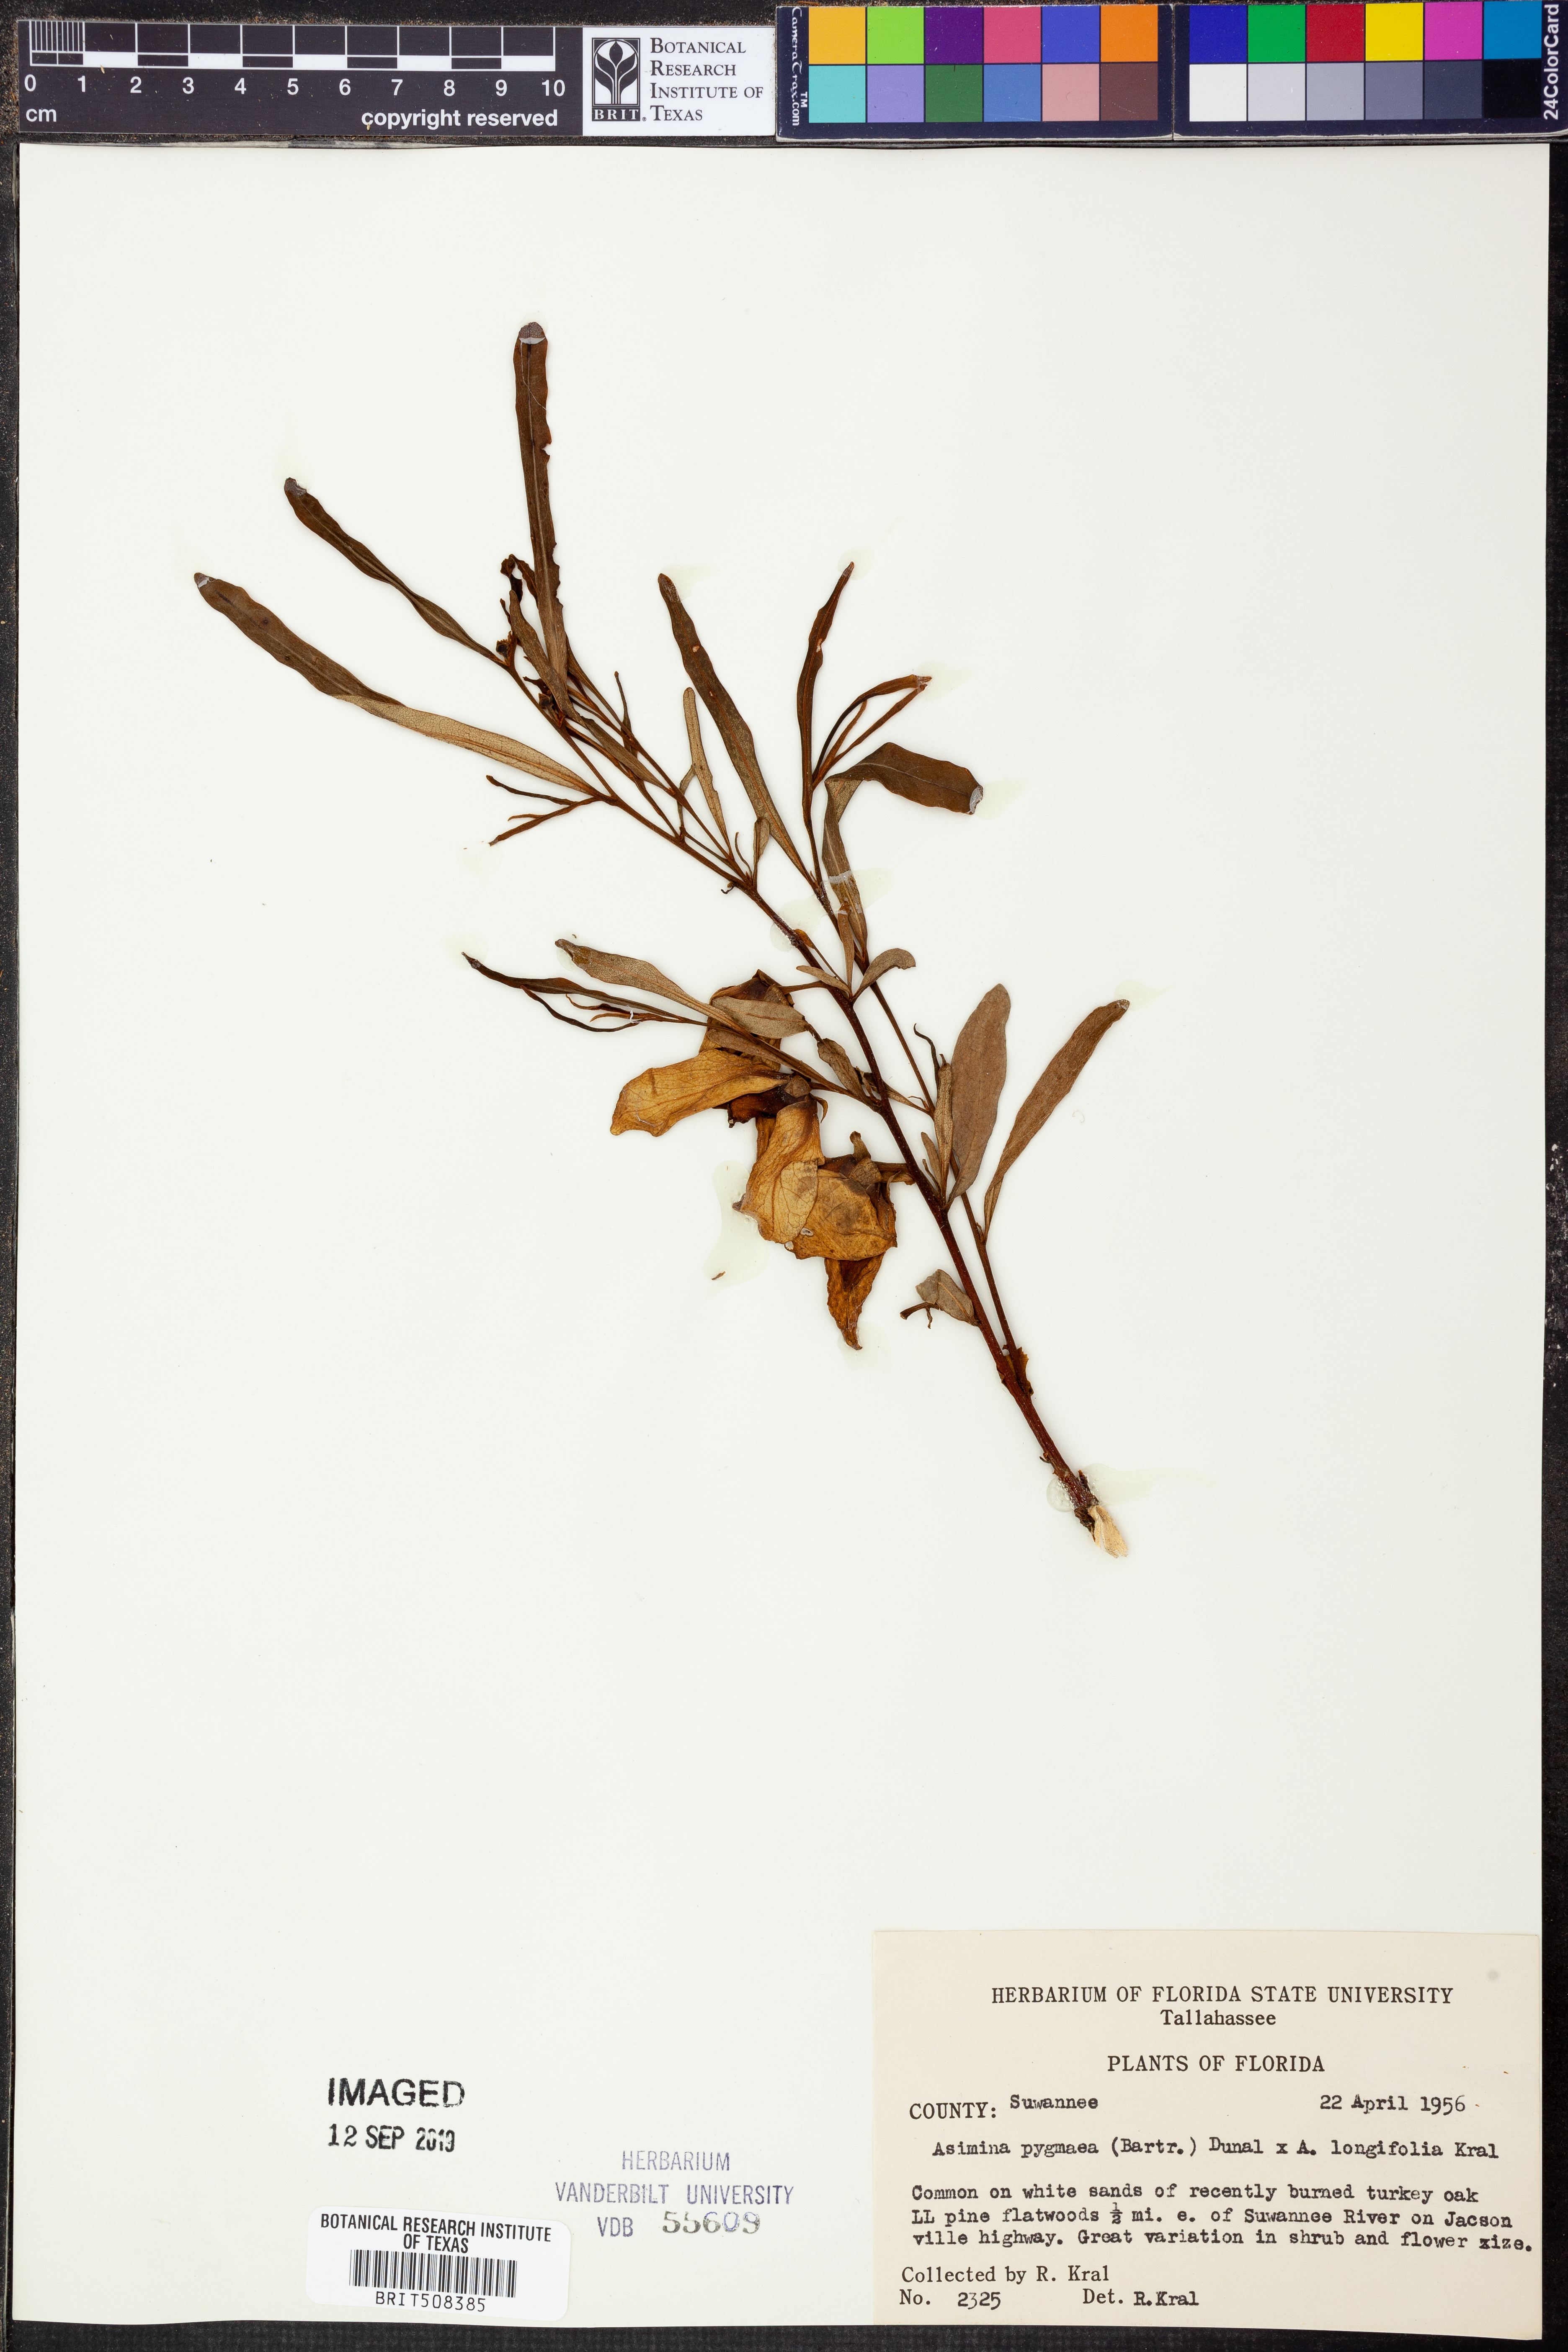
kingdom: Plantae
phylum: Tracheophyta
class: Magnoliopsida
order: Magnoliales
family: Annonaceae
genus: Asimina
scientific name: Asimina pygmaea
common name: Dwarf pawpaw
